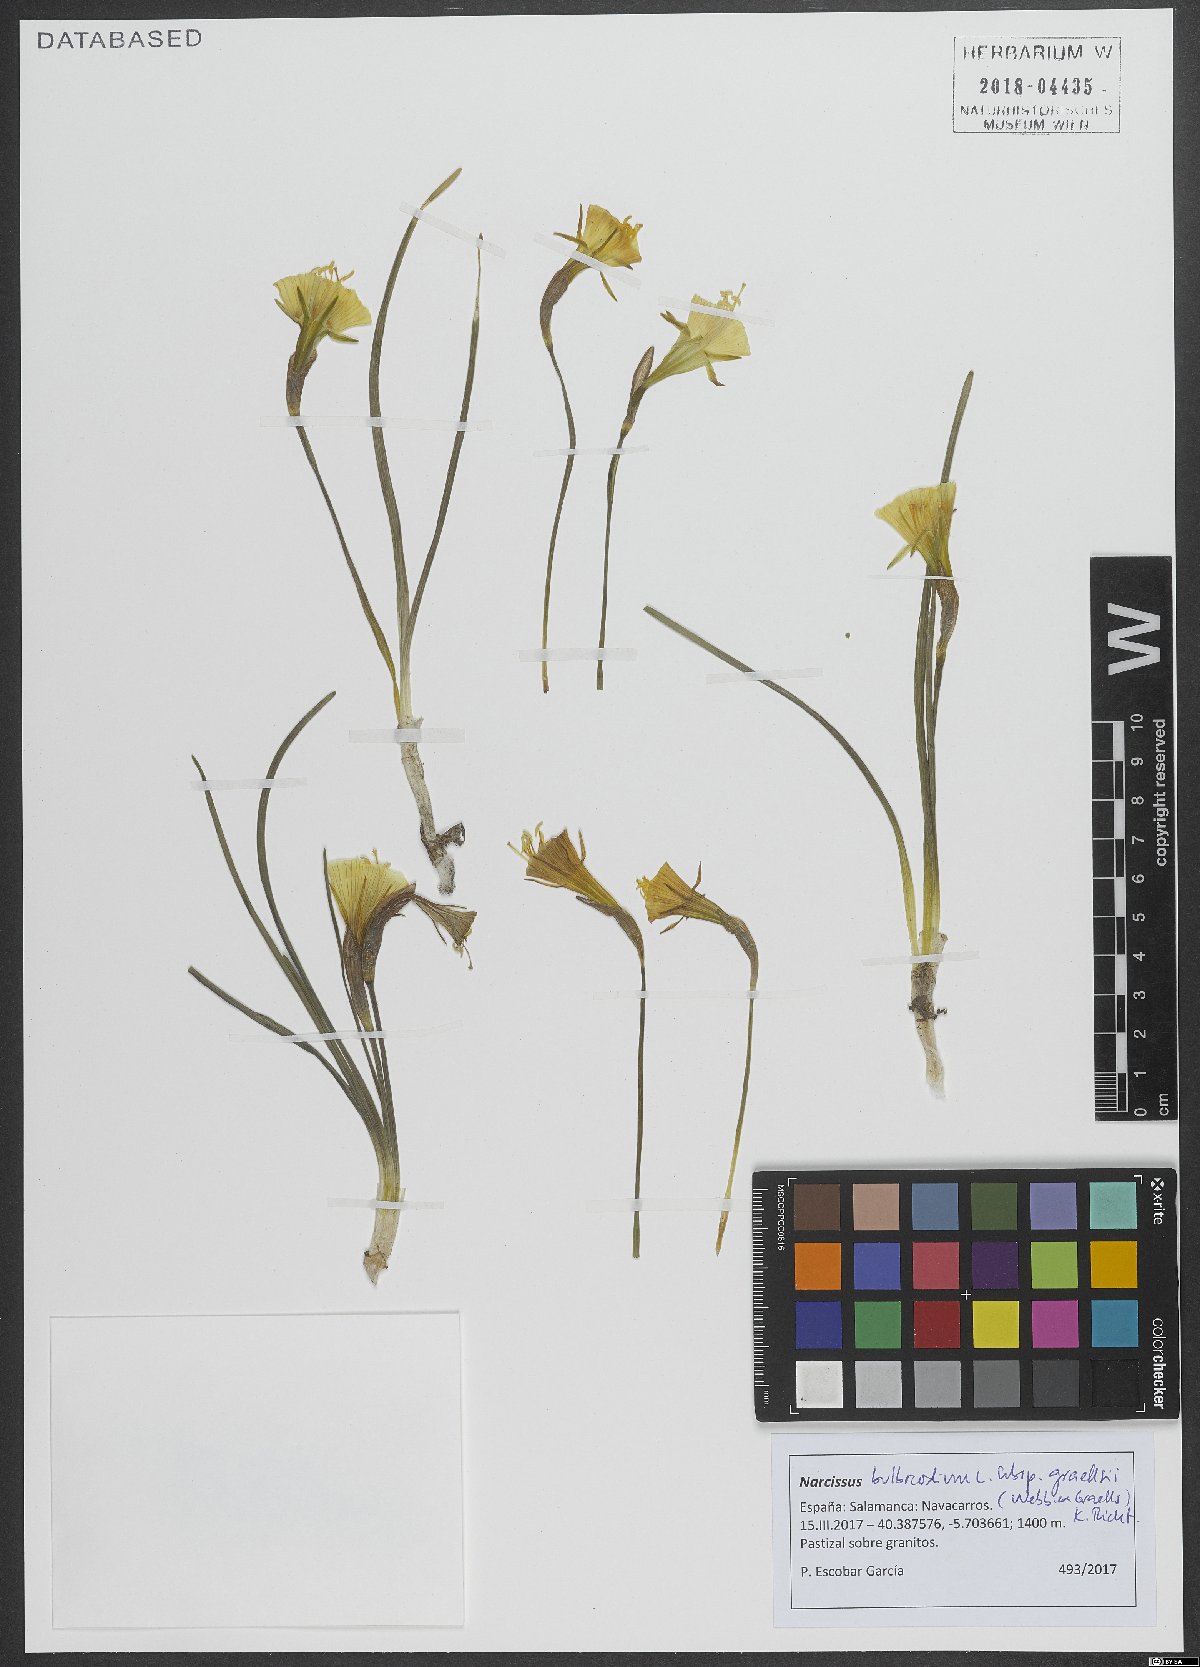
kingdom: Plantae
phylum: Tracheophyta
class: Liliopsida
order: Asparagales
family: Amaryllidaceae
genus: Narcissus
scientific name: Narcissus bulbocodium
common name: Hoop-petticoat daffodil
